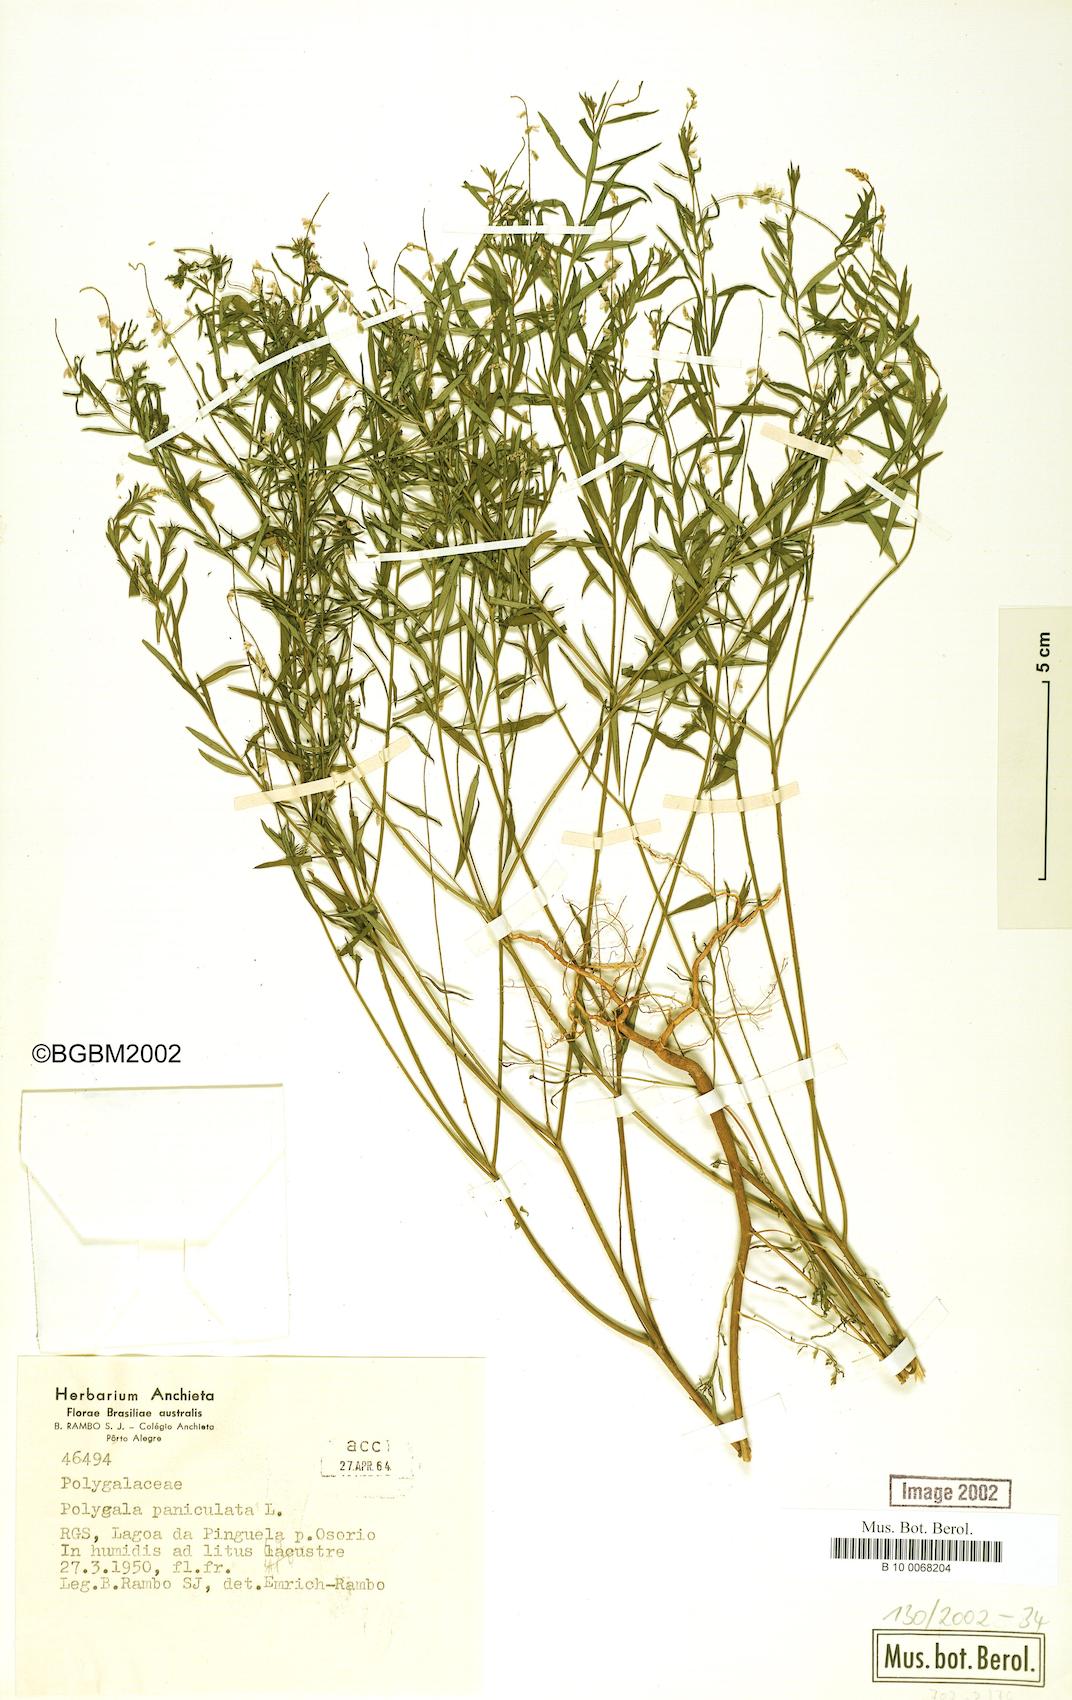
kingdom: Plantae
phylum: Tracheophyta
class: Magnoliopsida
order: Fabales
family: Polygalaceae
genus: Polygala
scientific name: Polygala paniculata
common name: Orosne
